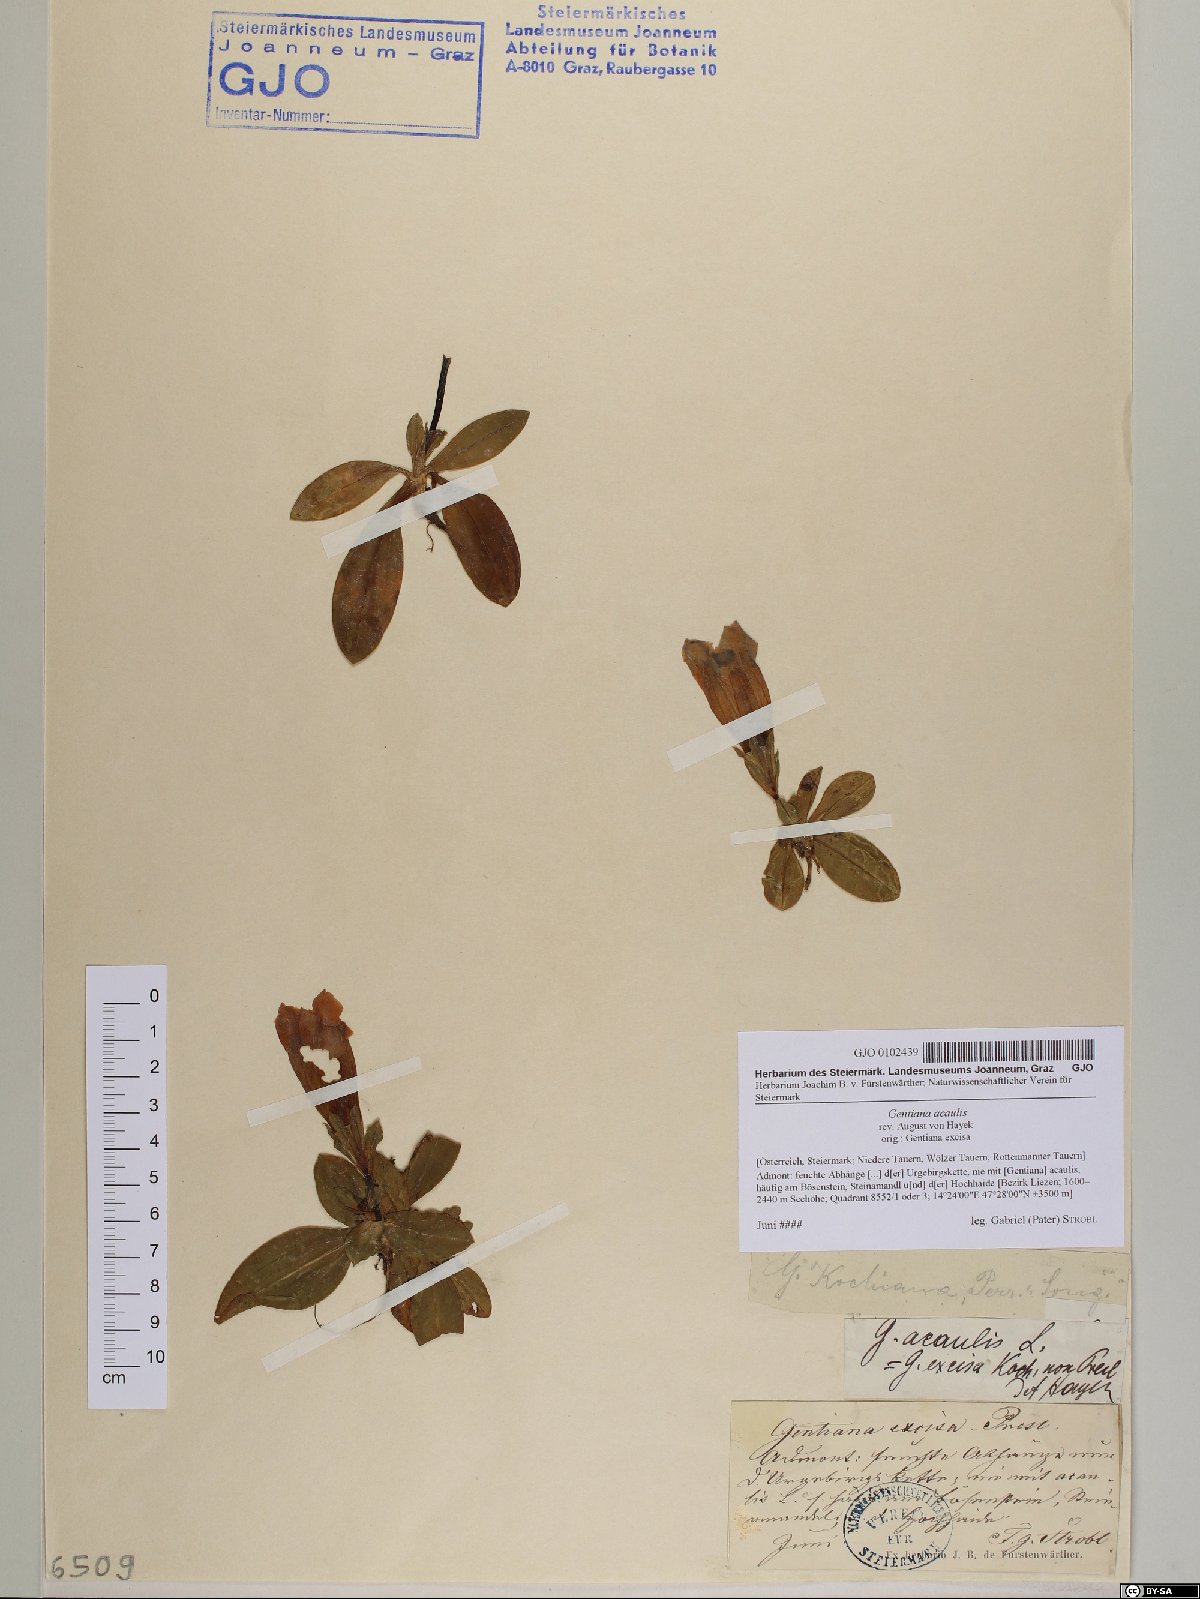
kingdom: Plantae
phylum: Tracheophyta
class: Magnoliopsida
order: Gentianales
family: Gentianaceae
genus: Gentiana
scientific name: Gentiana acaulis
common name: Trumpet gentian
